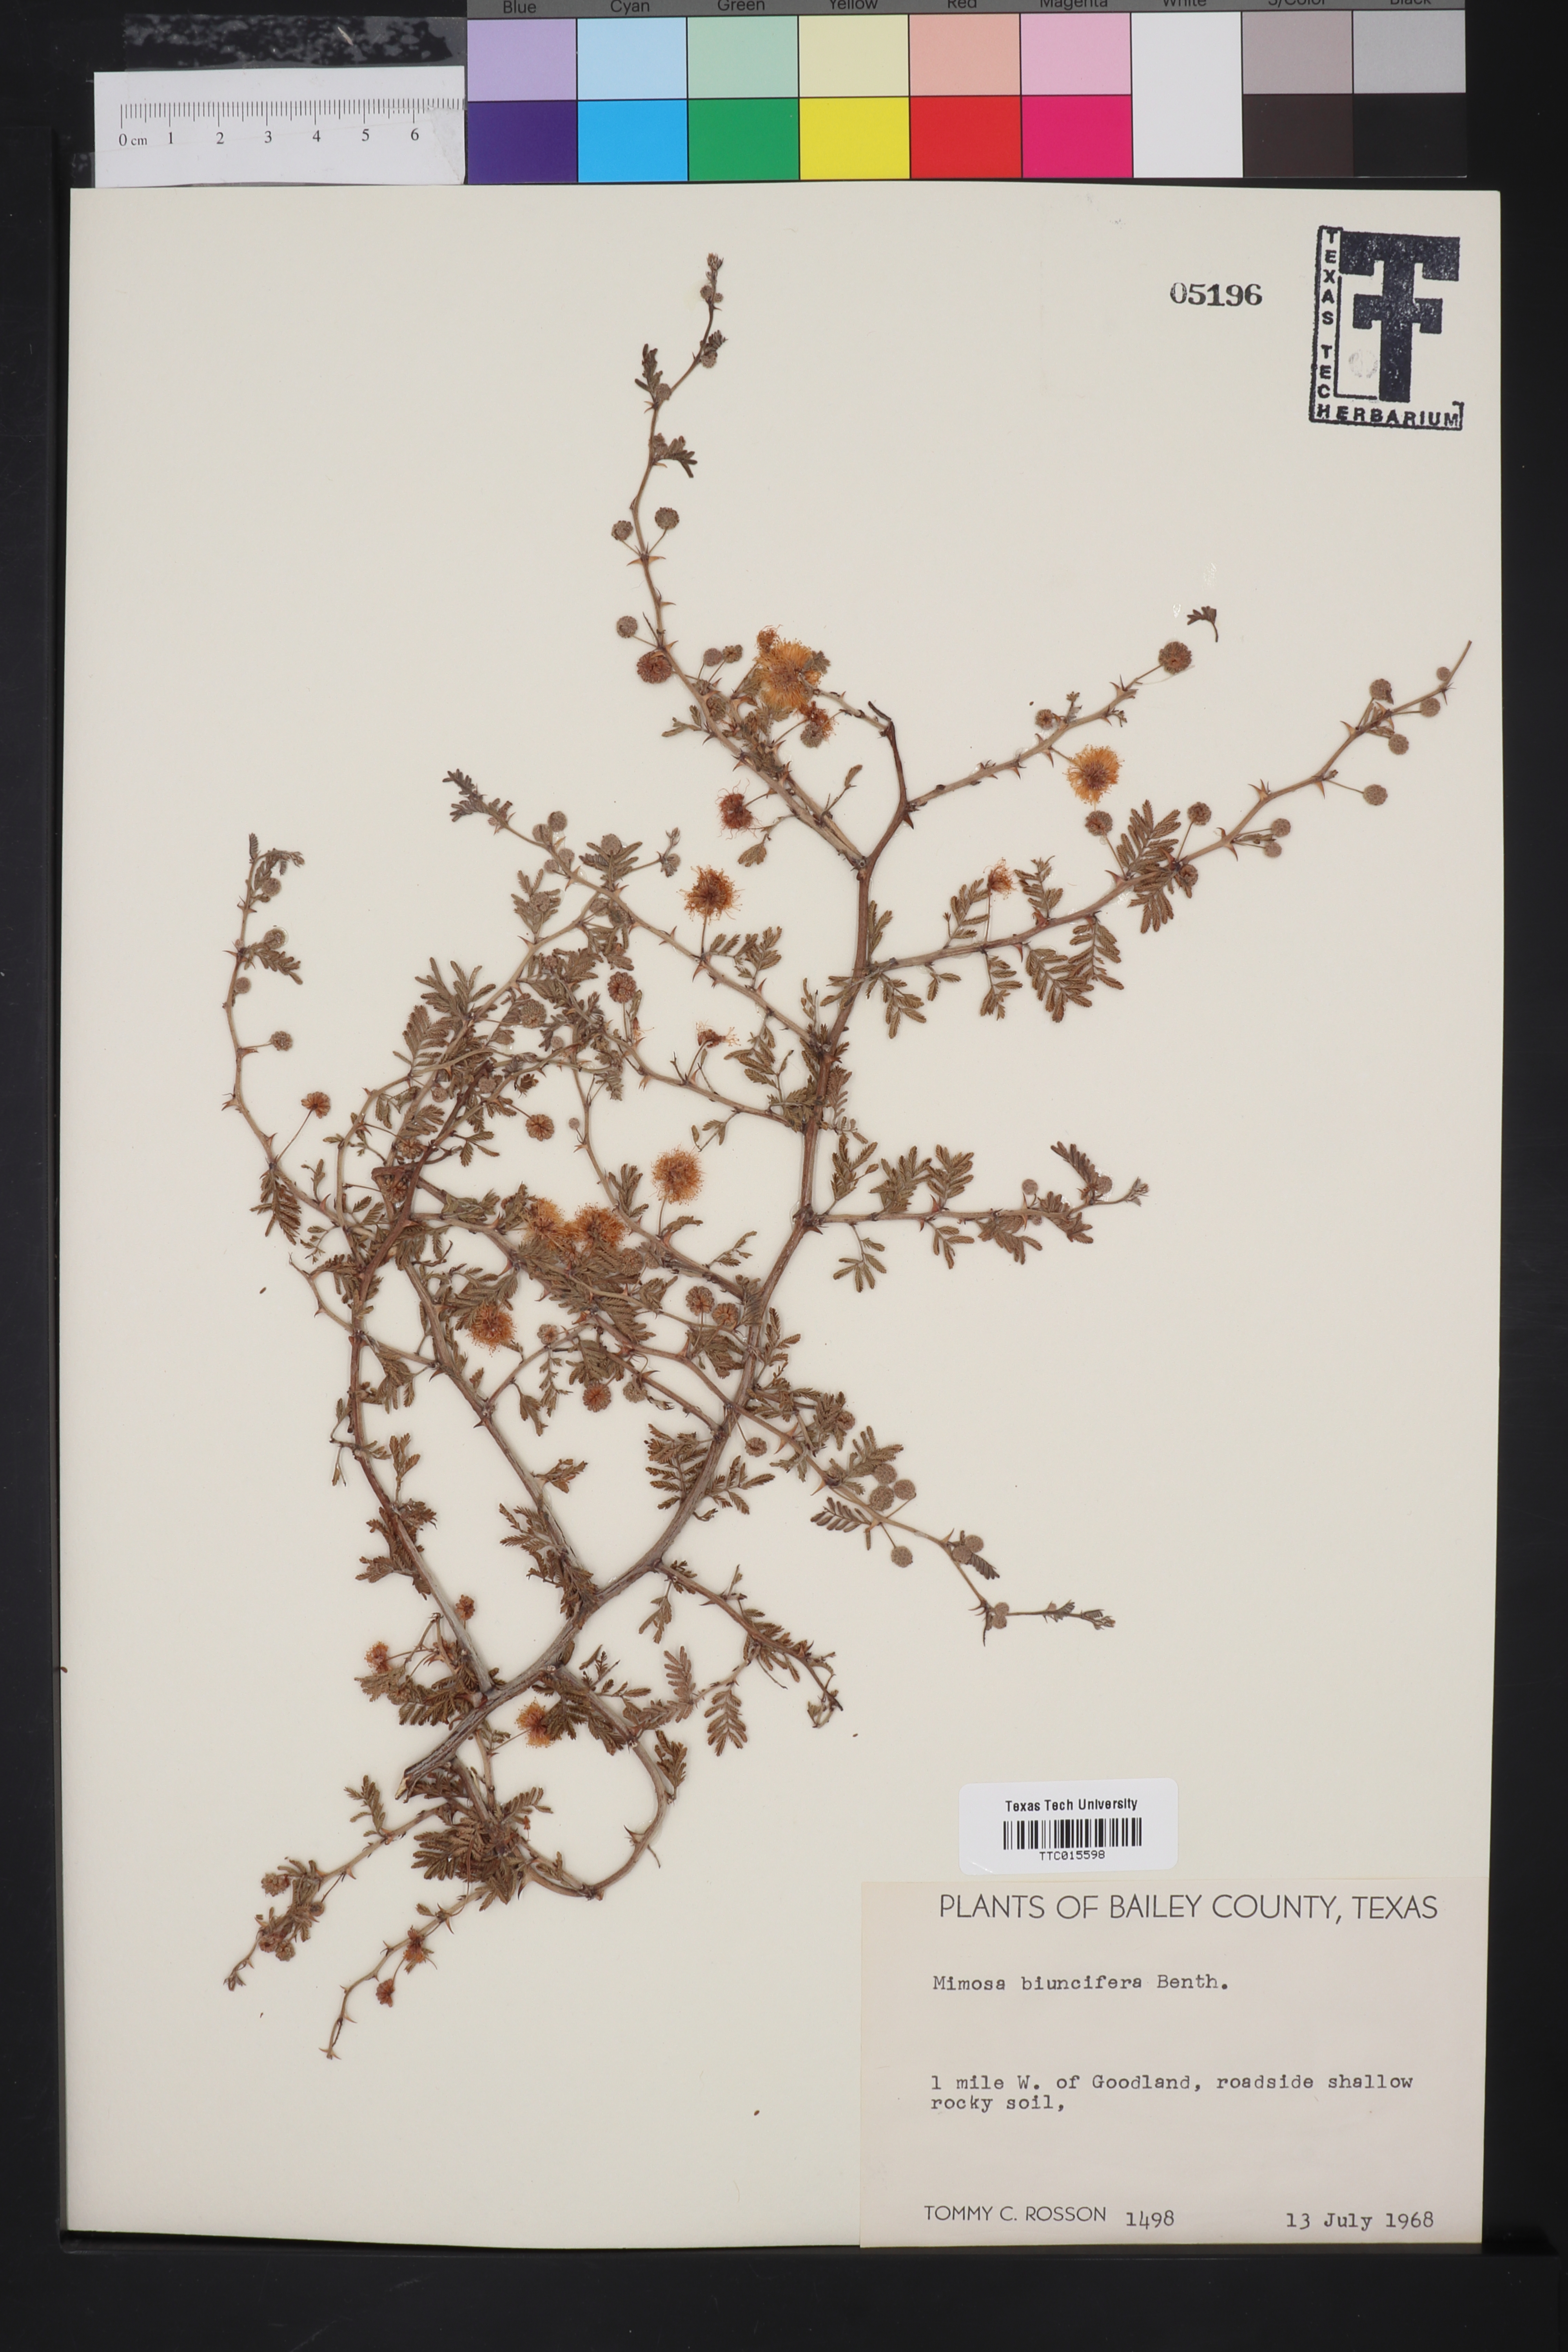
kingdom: Plantae
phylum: Tracheophyta
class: Magnoliopsida
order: Fabales
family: Fabaceae
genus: Mimosa
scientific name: Mimosa biuncifera
